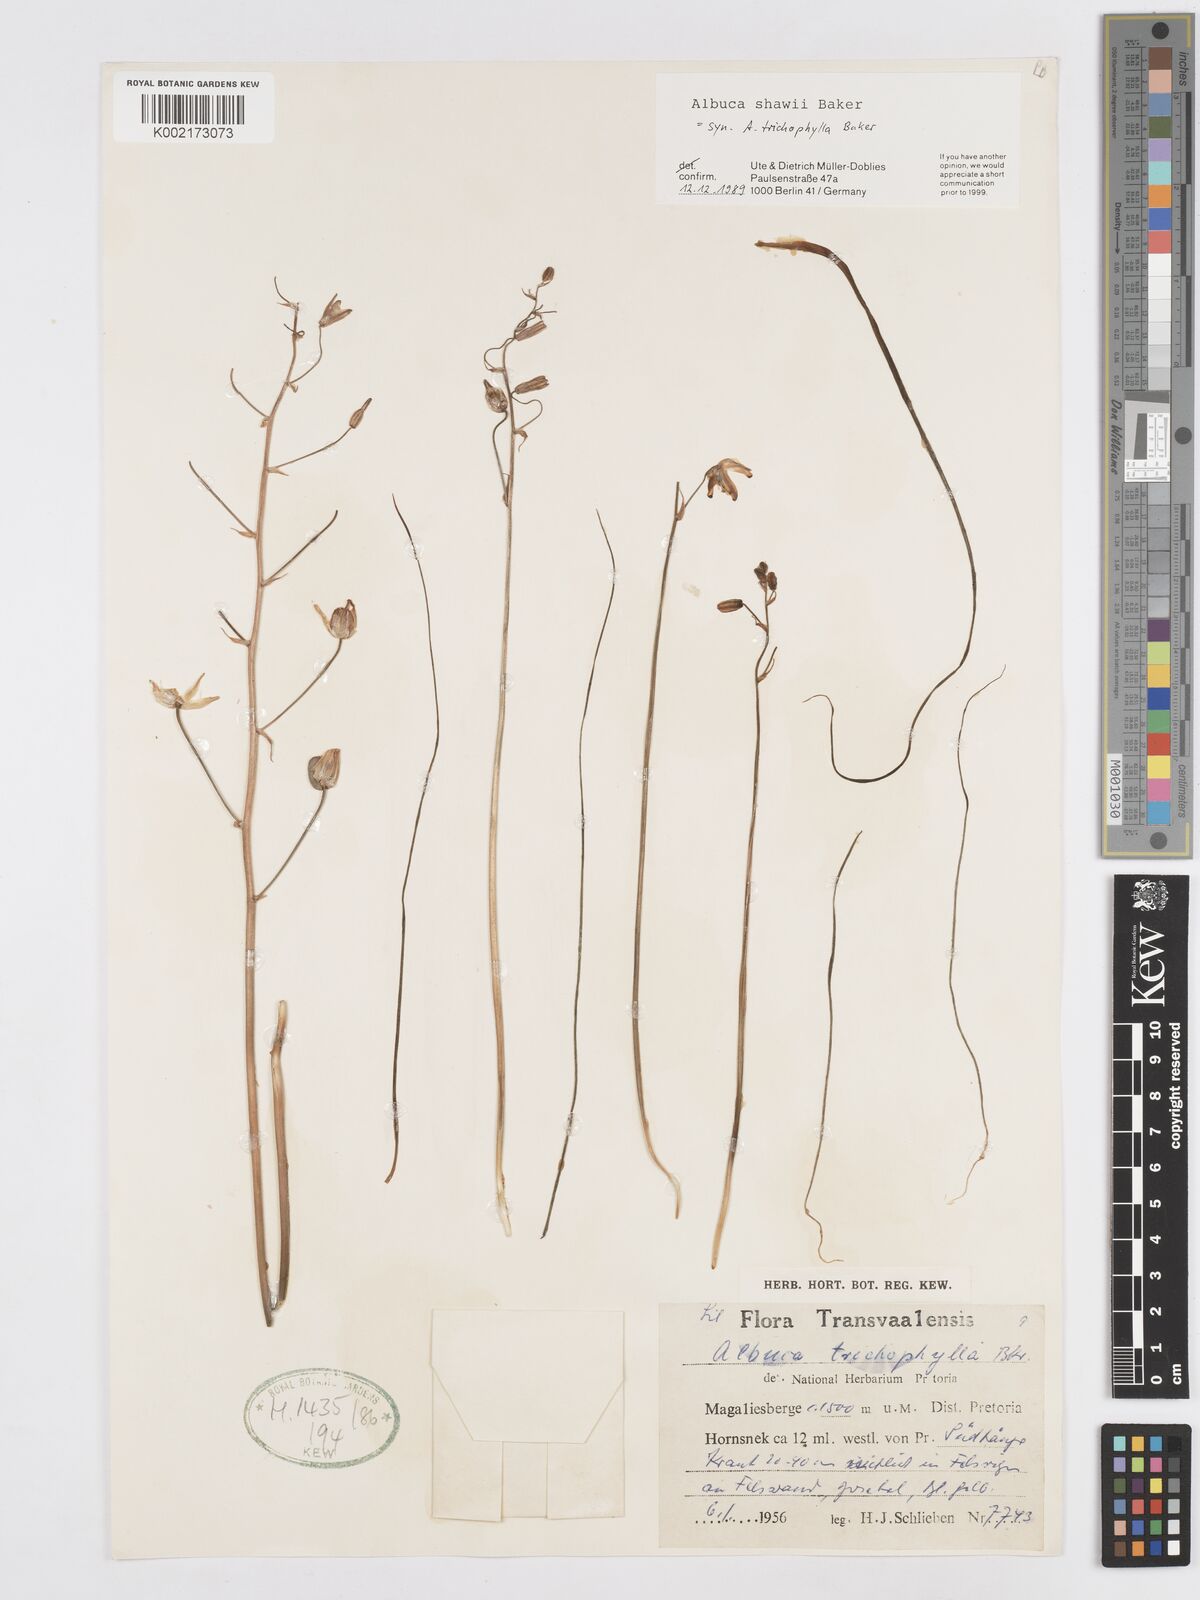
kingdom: Plantae
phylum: Tracheophyta
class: Liliopsida
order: Asparagales
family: Asparagaceae
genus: Albuca
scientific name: Albuca shawii
